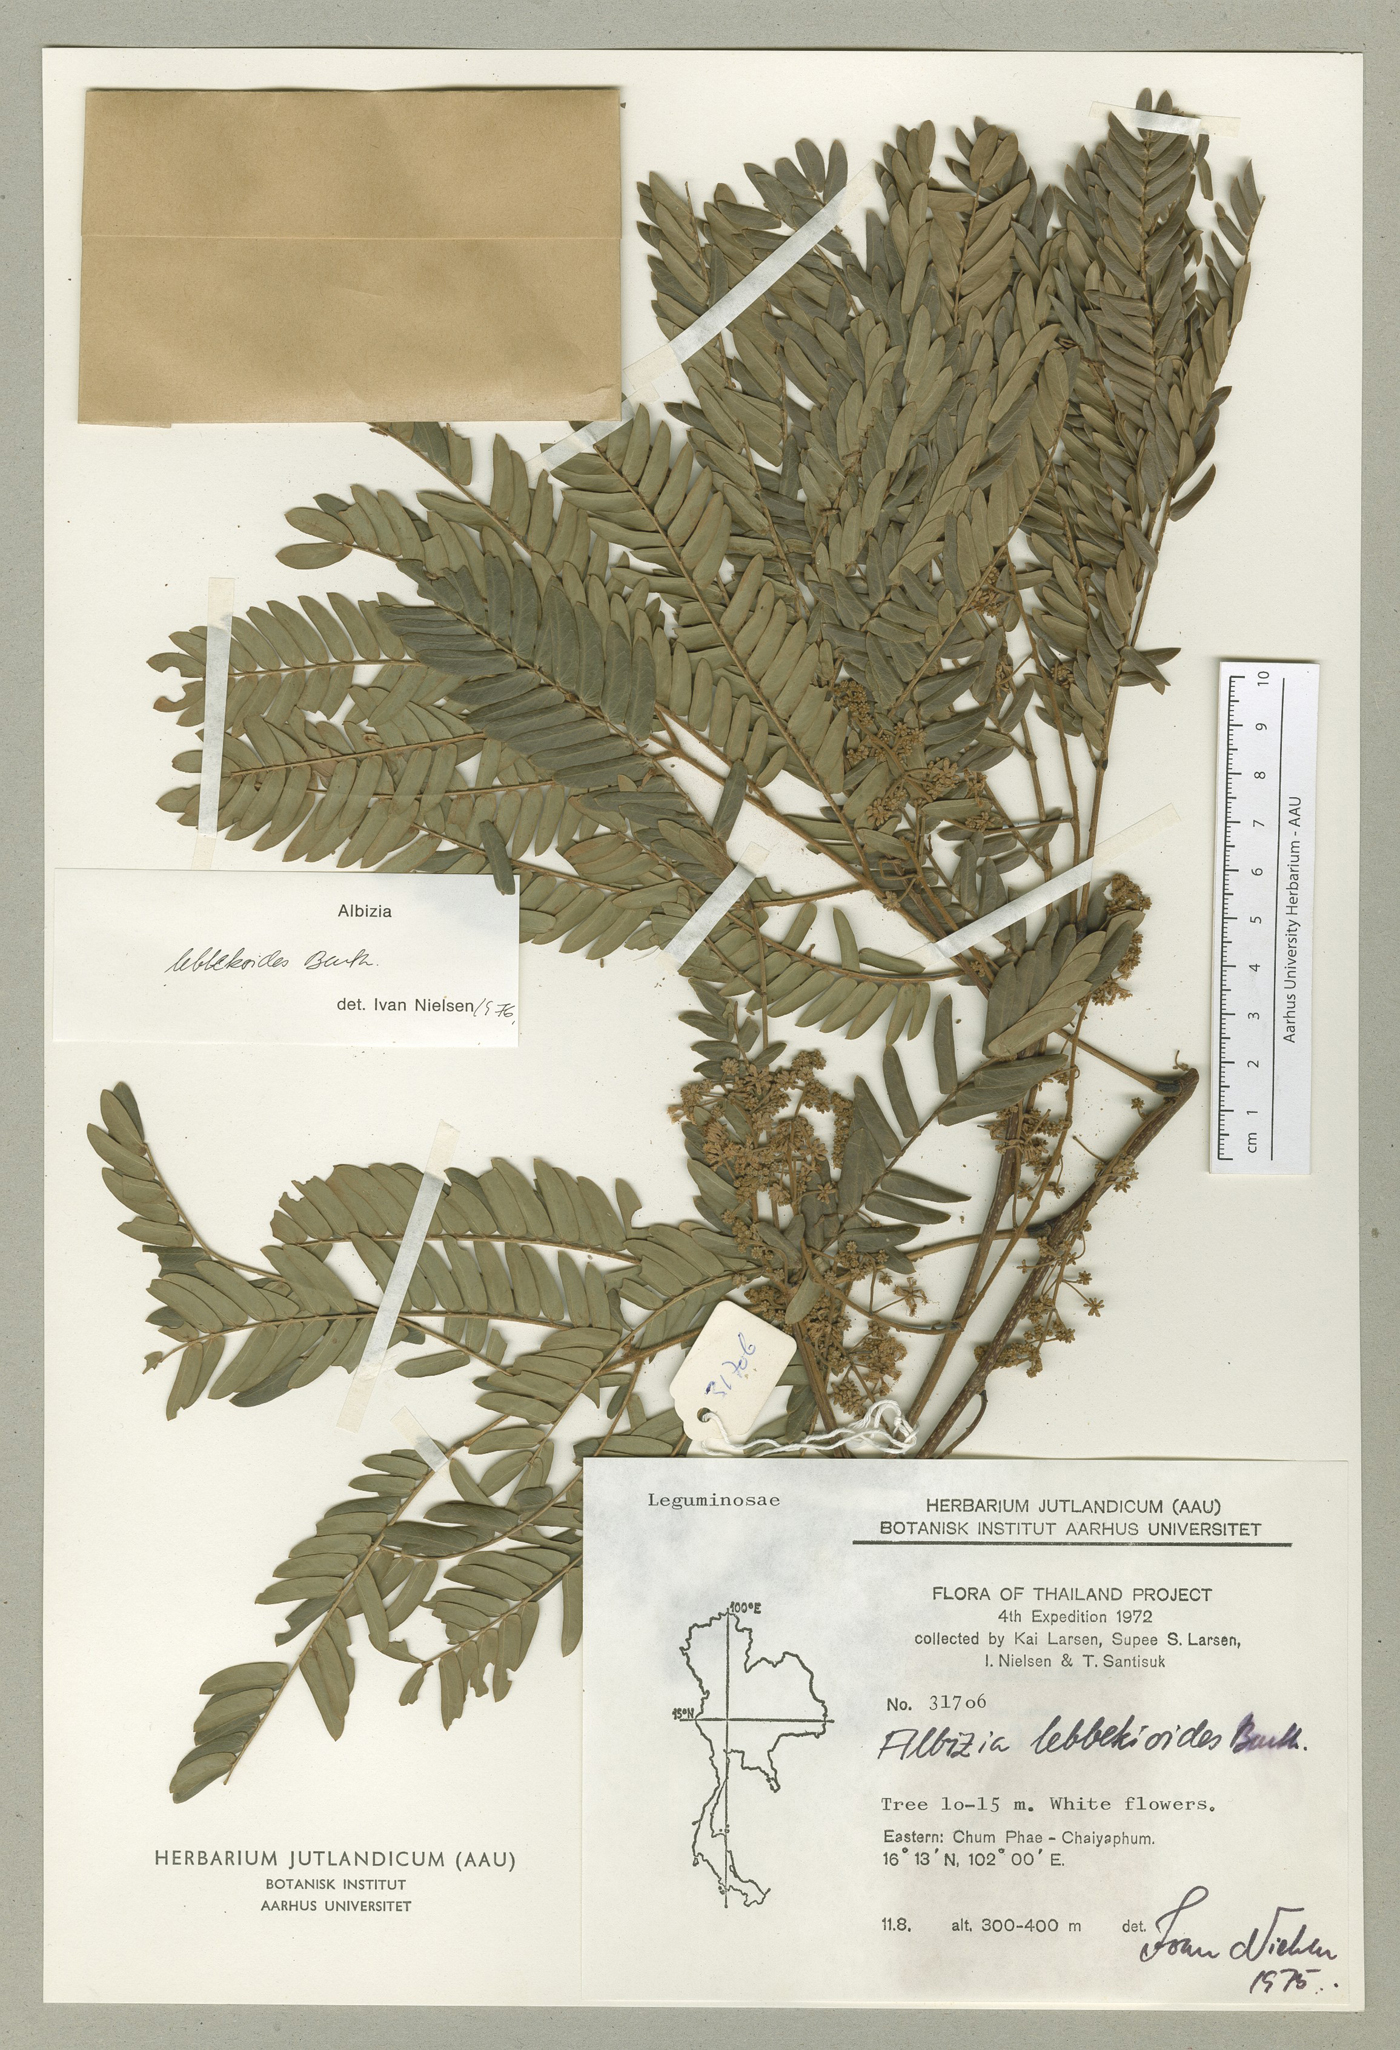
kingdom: Plantae
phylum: Tracheophyta
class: Magnoliopsida
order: Fabales
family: Fabaceae
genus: Albizia
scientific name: Albizia lebbekoides
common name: Indian albizia
